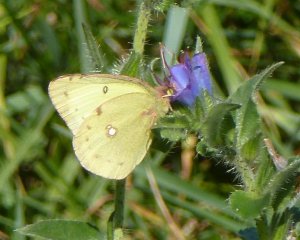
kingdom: Animalia
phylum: Arthropoda
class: Insecta
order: Lepidoptera
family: Pieridae
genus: Colias
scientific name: Colias philodice
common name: Clouded Sulphur
